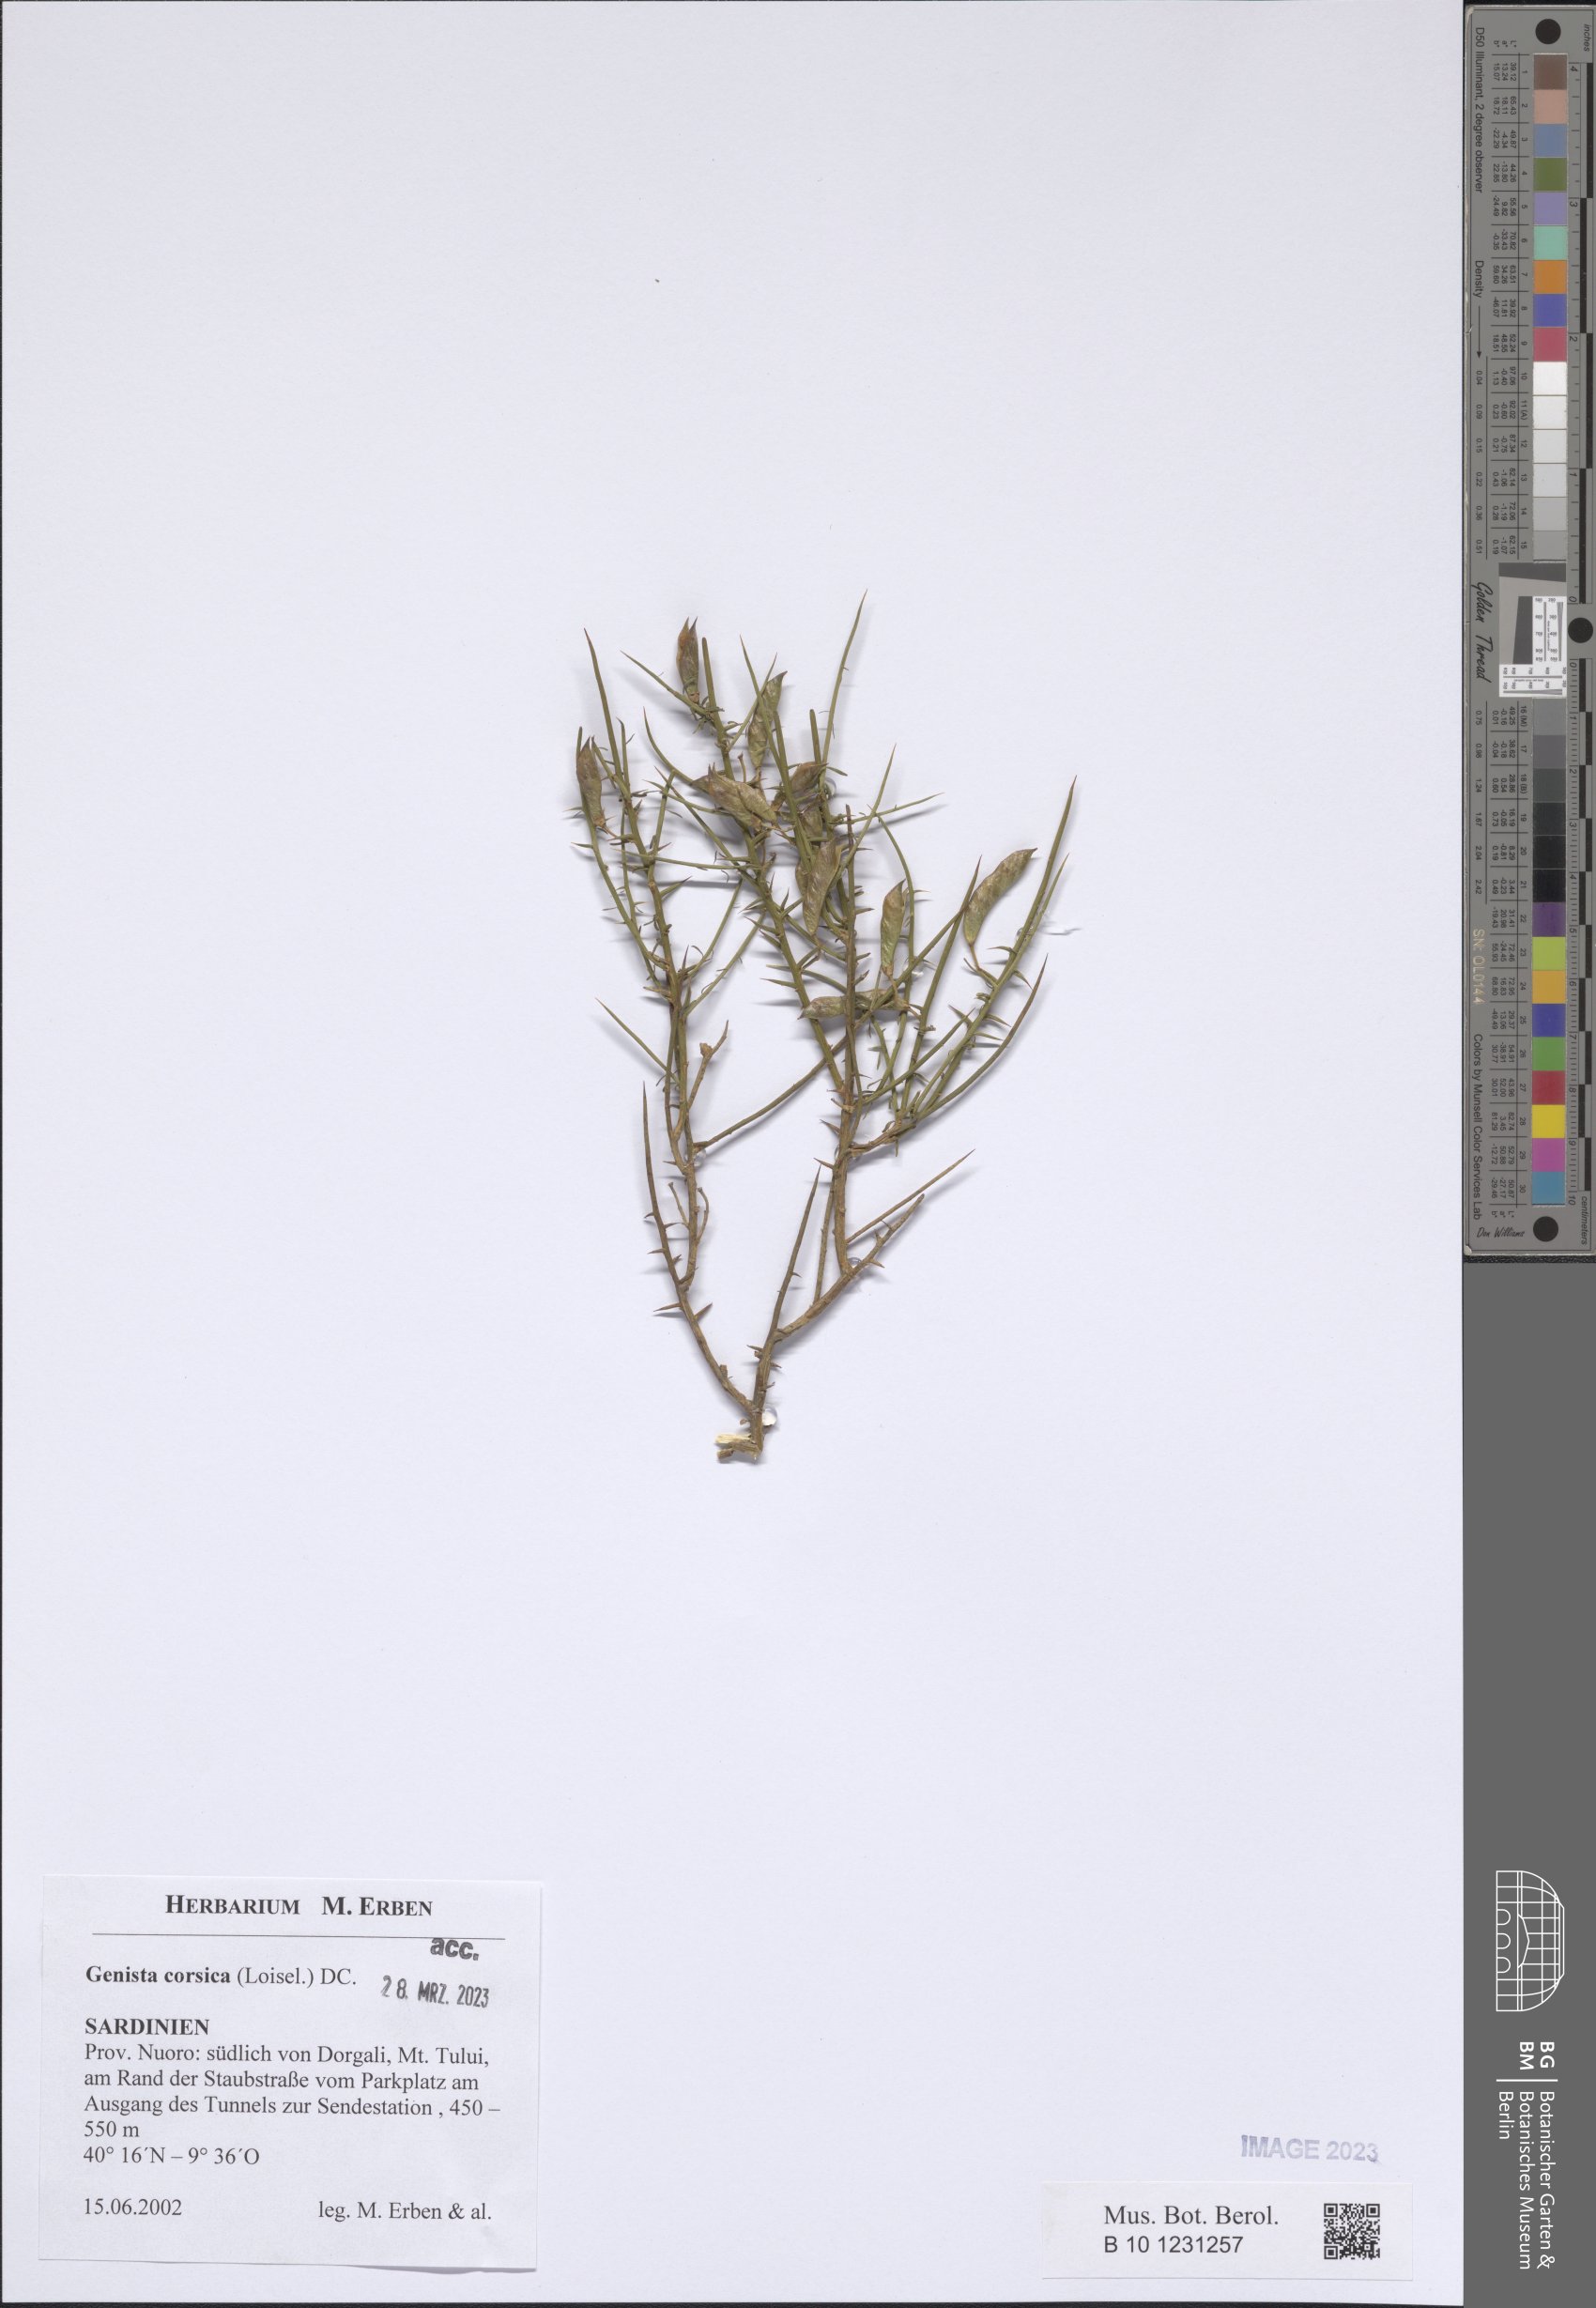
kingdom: Plantae
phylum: Tracheophyta
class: Magnoliopsida
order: Fabales
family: Fabaceae
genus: Genista
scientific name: Genista corsica
